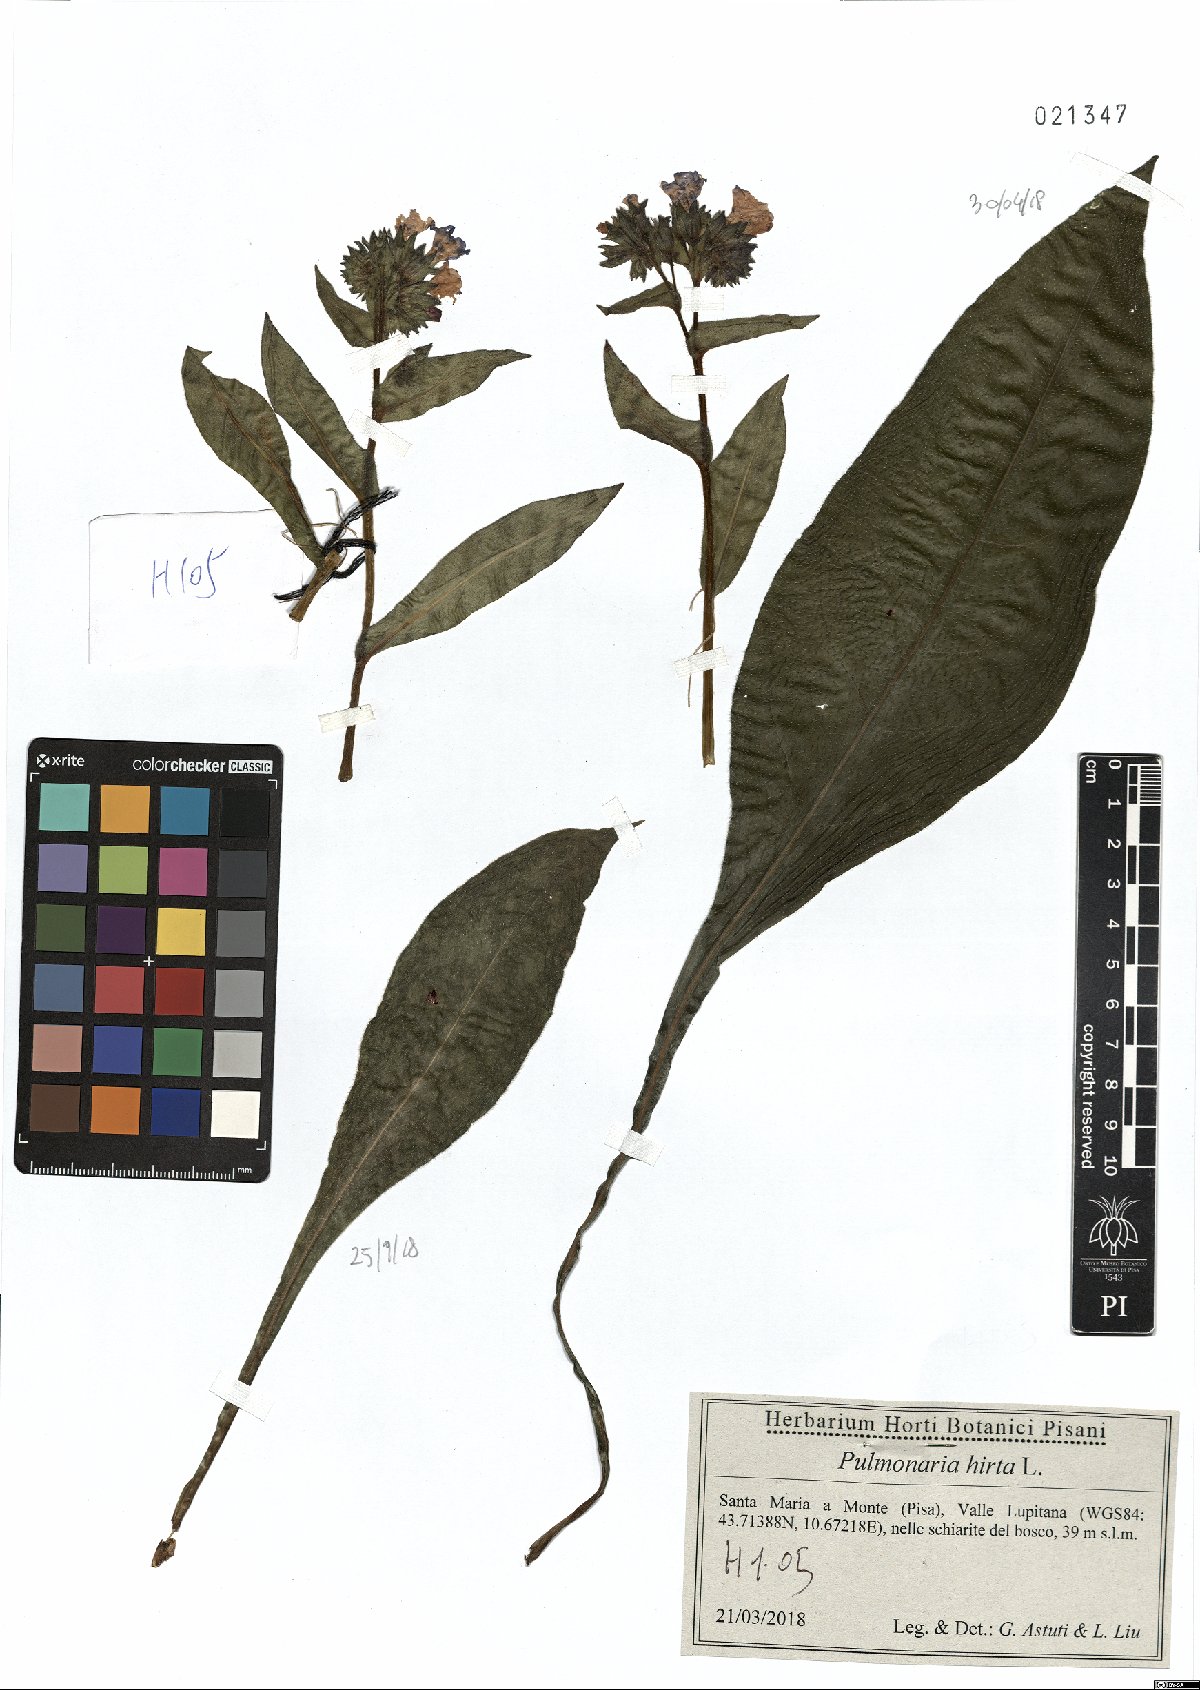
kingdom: Plantae
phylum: Tracheophyta
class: Magnoliopsida
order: Boraginales
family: Boraginaceae
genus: Pulmonaria
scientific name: Pulmonaria hirta
